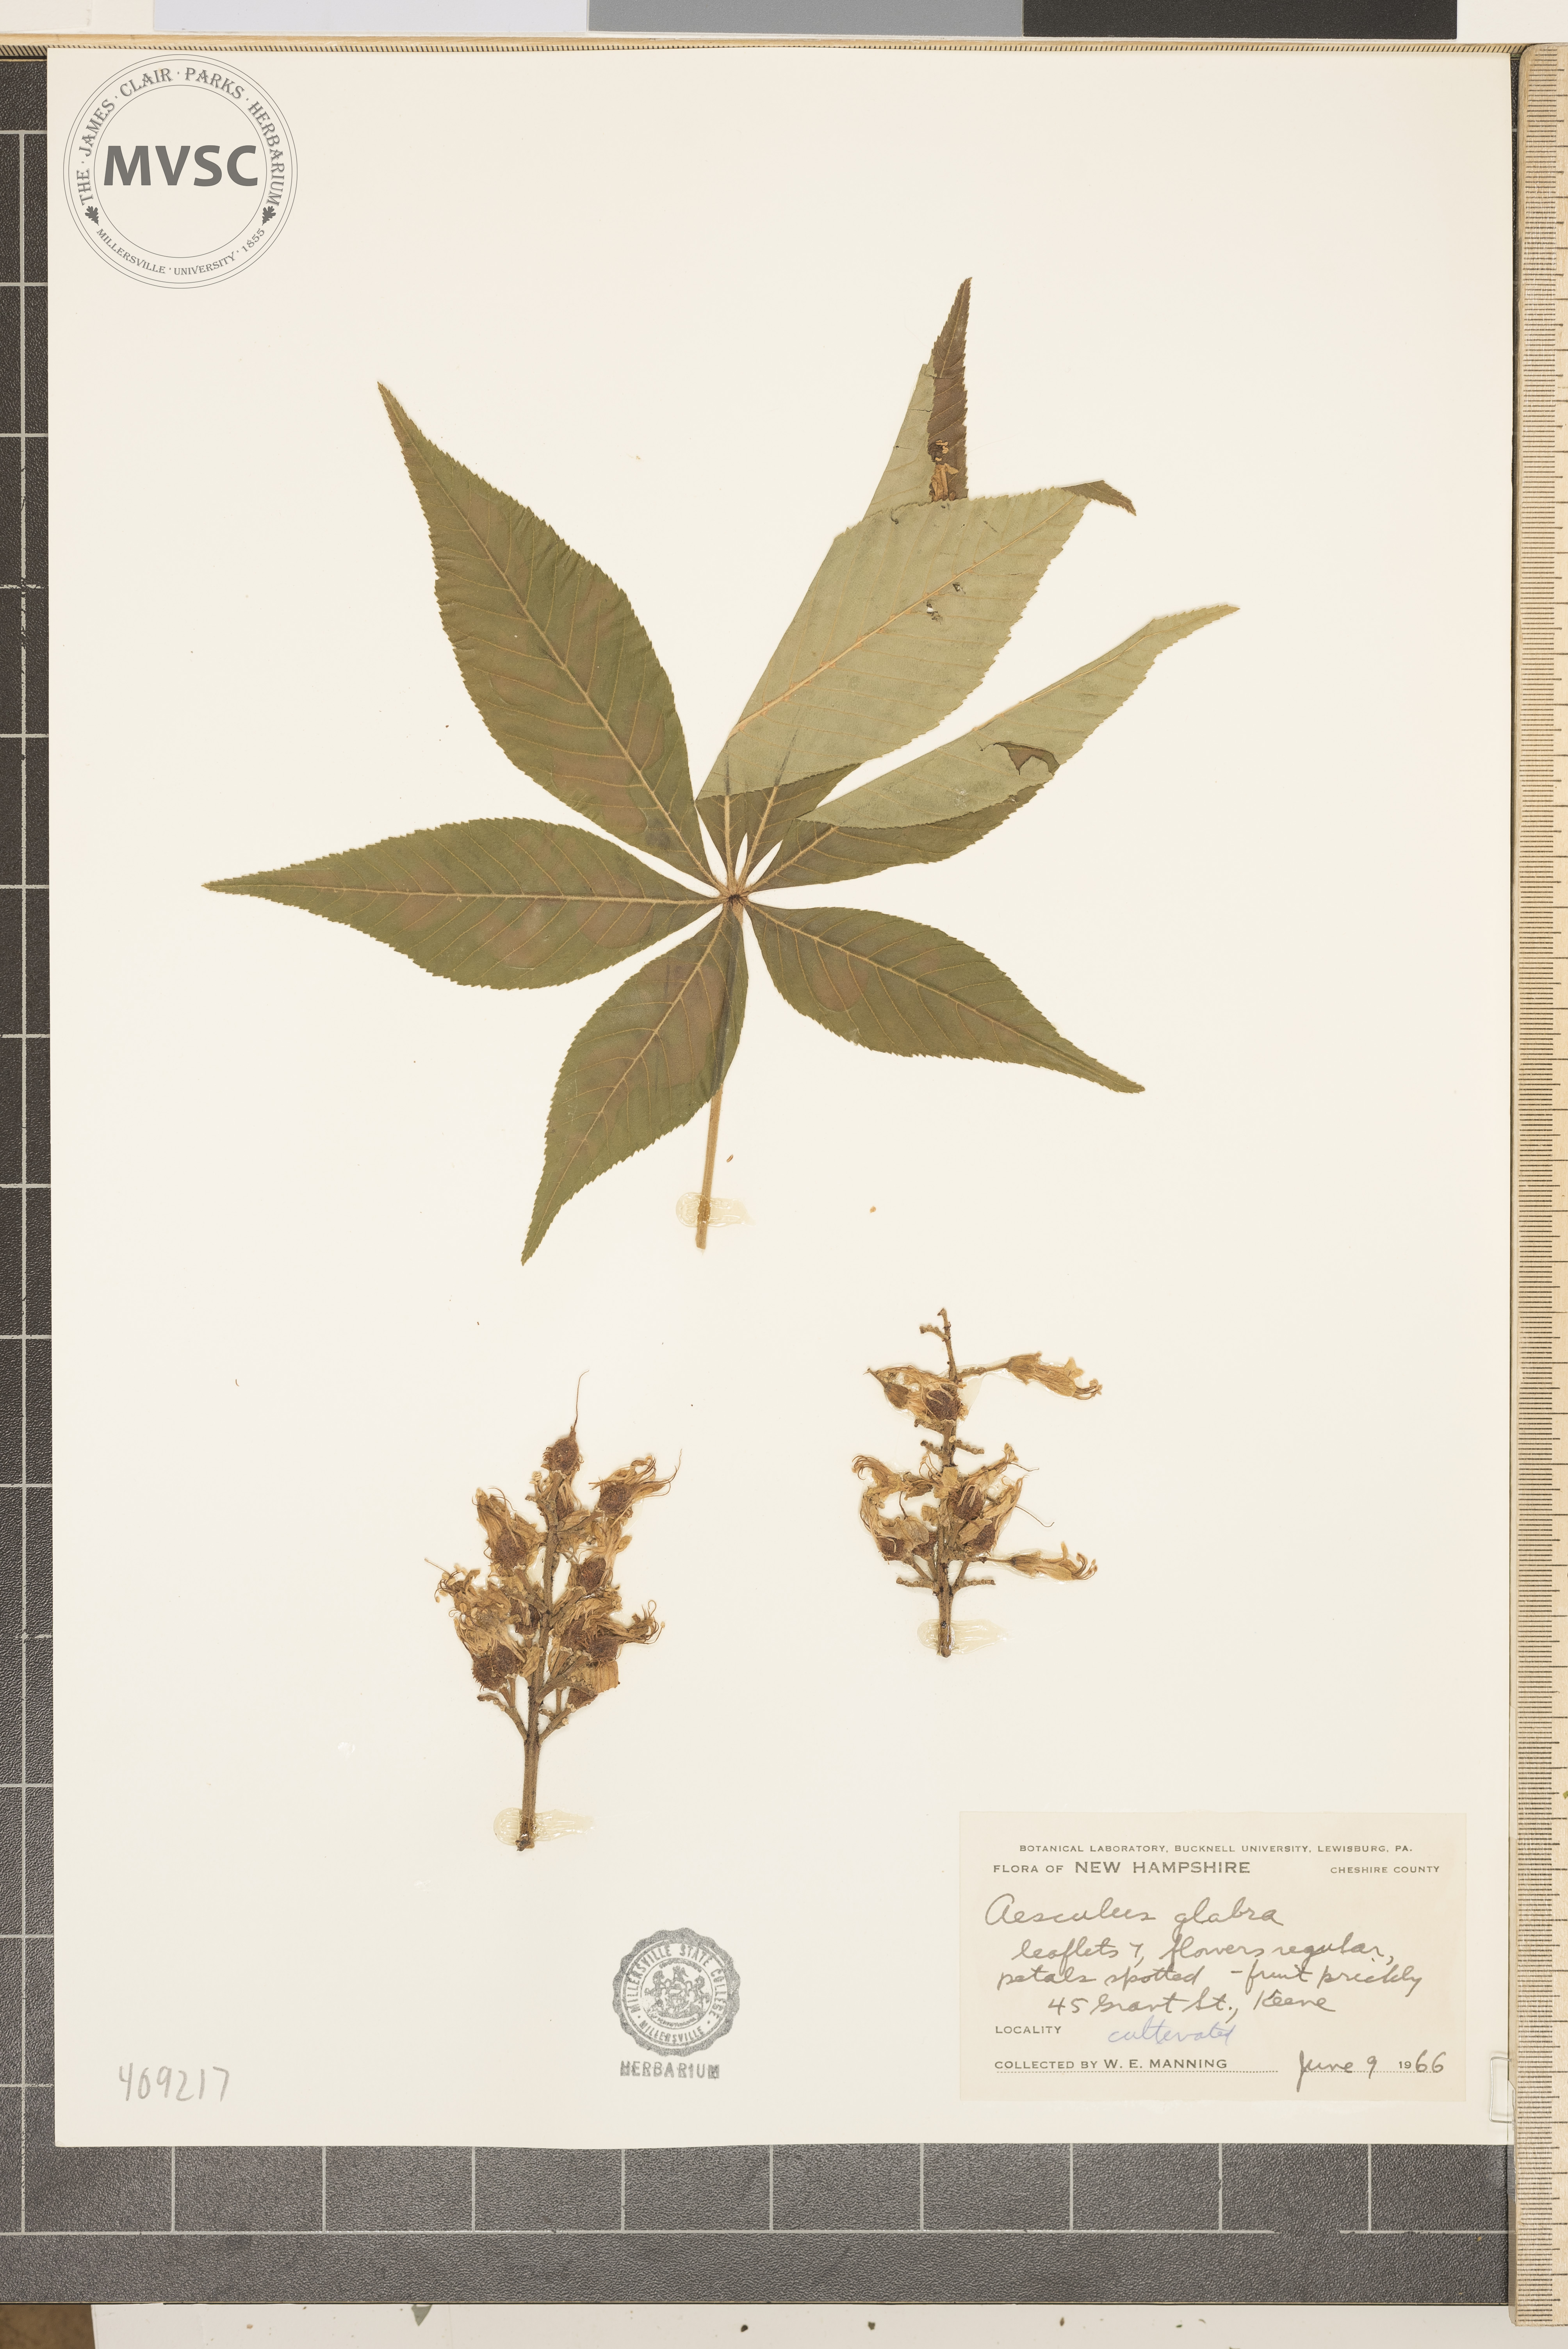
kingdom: Plantae
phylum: Tracheophyta
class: Magnoliopsida
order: Sapindales
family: Sapindaceae
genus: Aesculus
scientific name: Aesculus glabra
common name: Ohio buckeye
